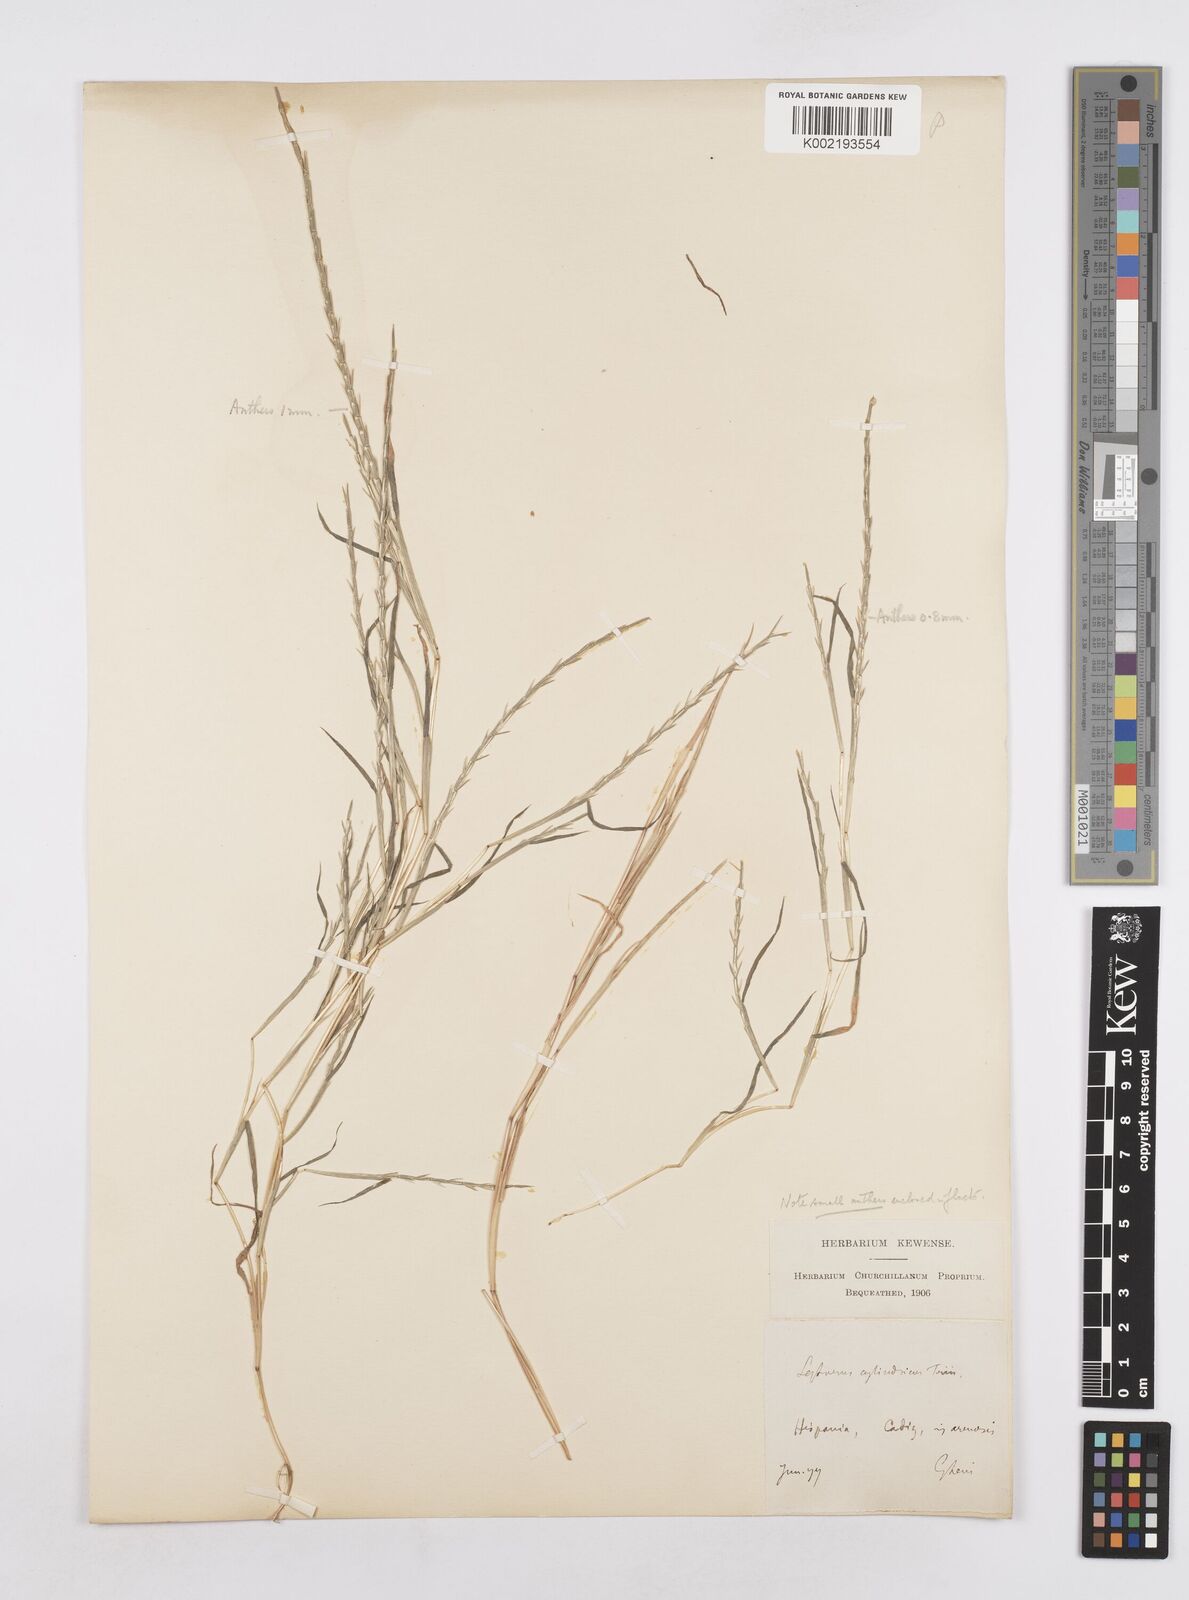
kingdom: Plantae
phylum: Tracheophyta
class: Liliopsida
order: Poales
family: Poaceae
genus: Parapholis
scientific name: Parapholis incurva
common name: Curved sicklegrass
